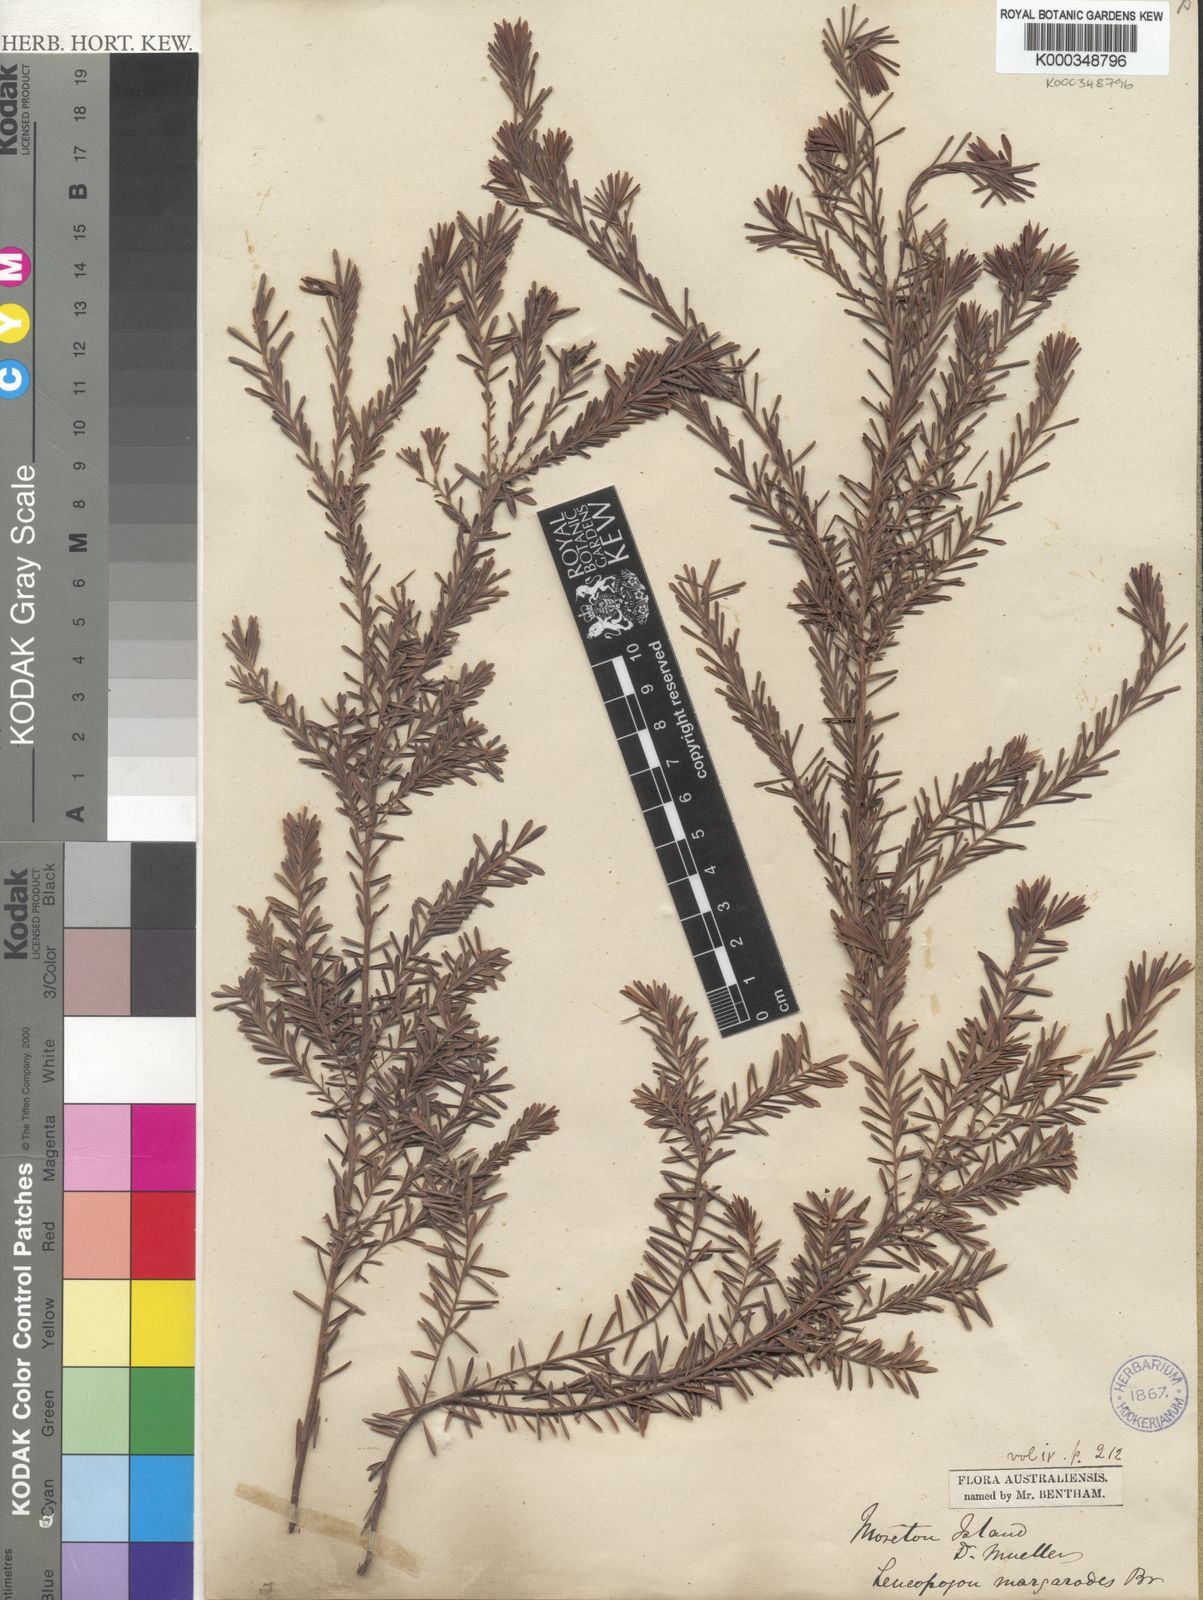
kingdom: Plantae
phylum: Tracheophyta
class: Magnoliopsida
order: Ericales
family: Ericaceae
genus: Styphelia
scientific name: Styphelia margarodes
